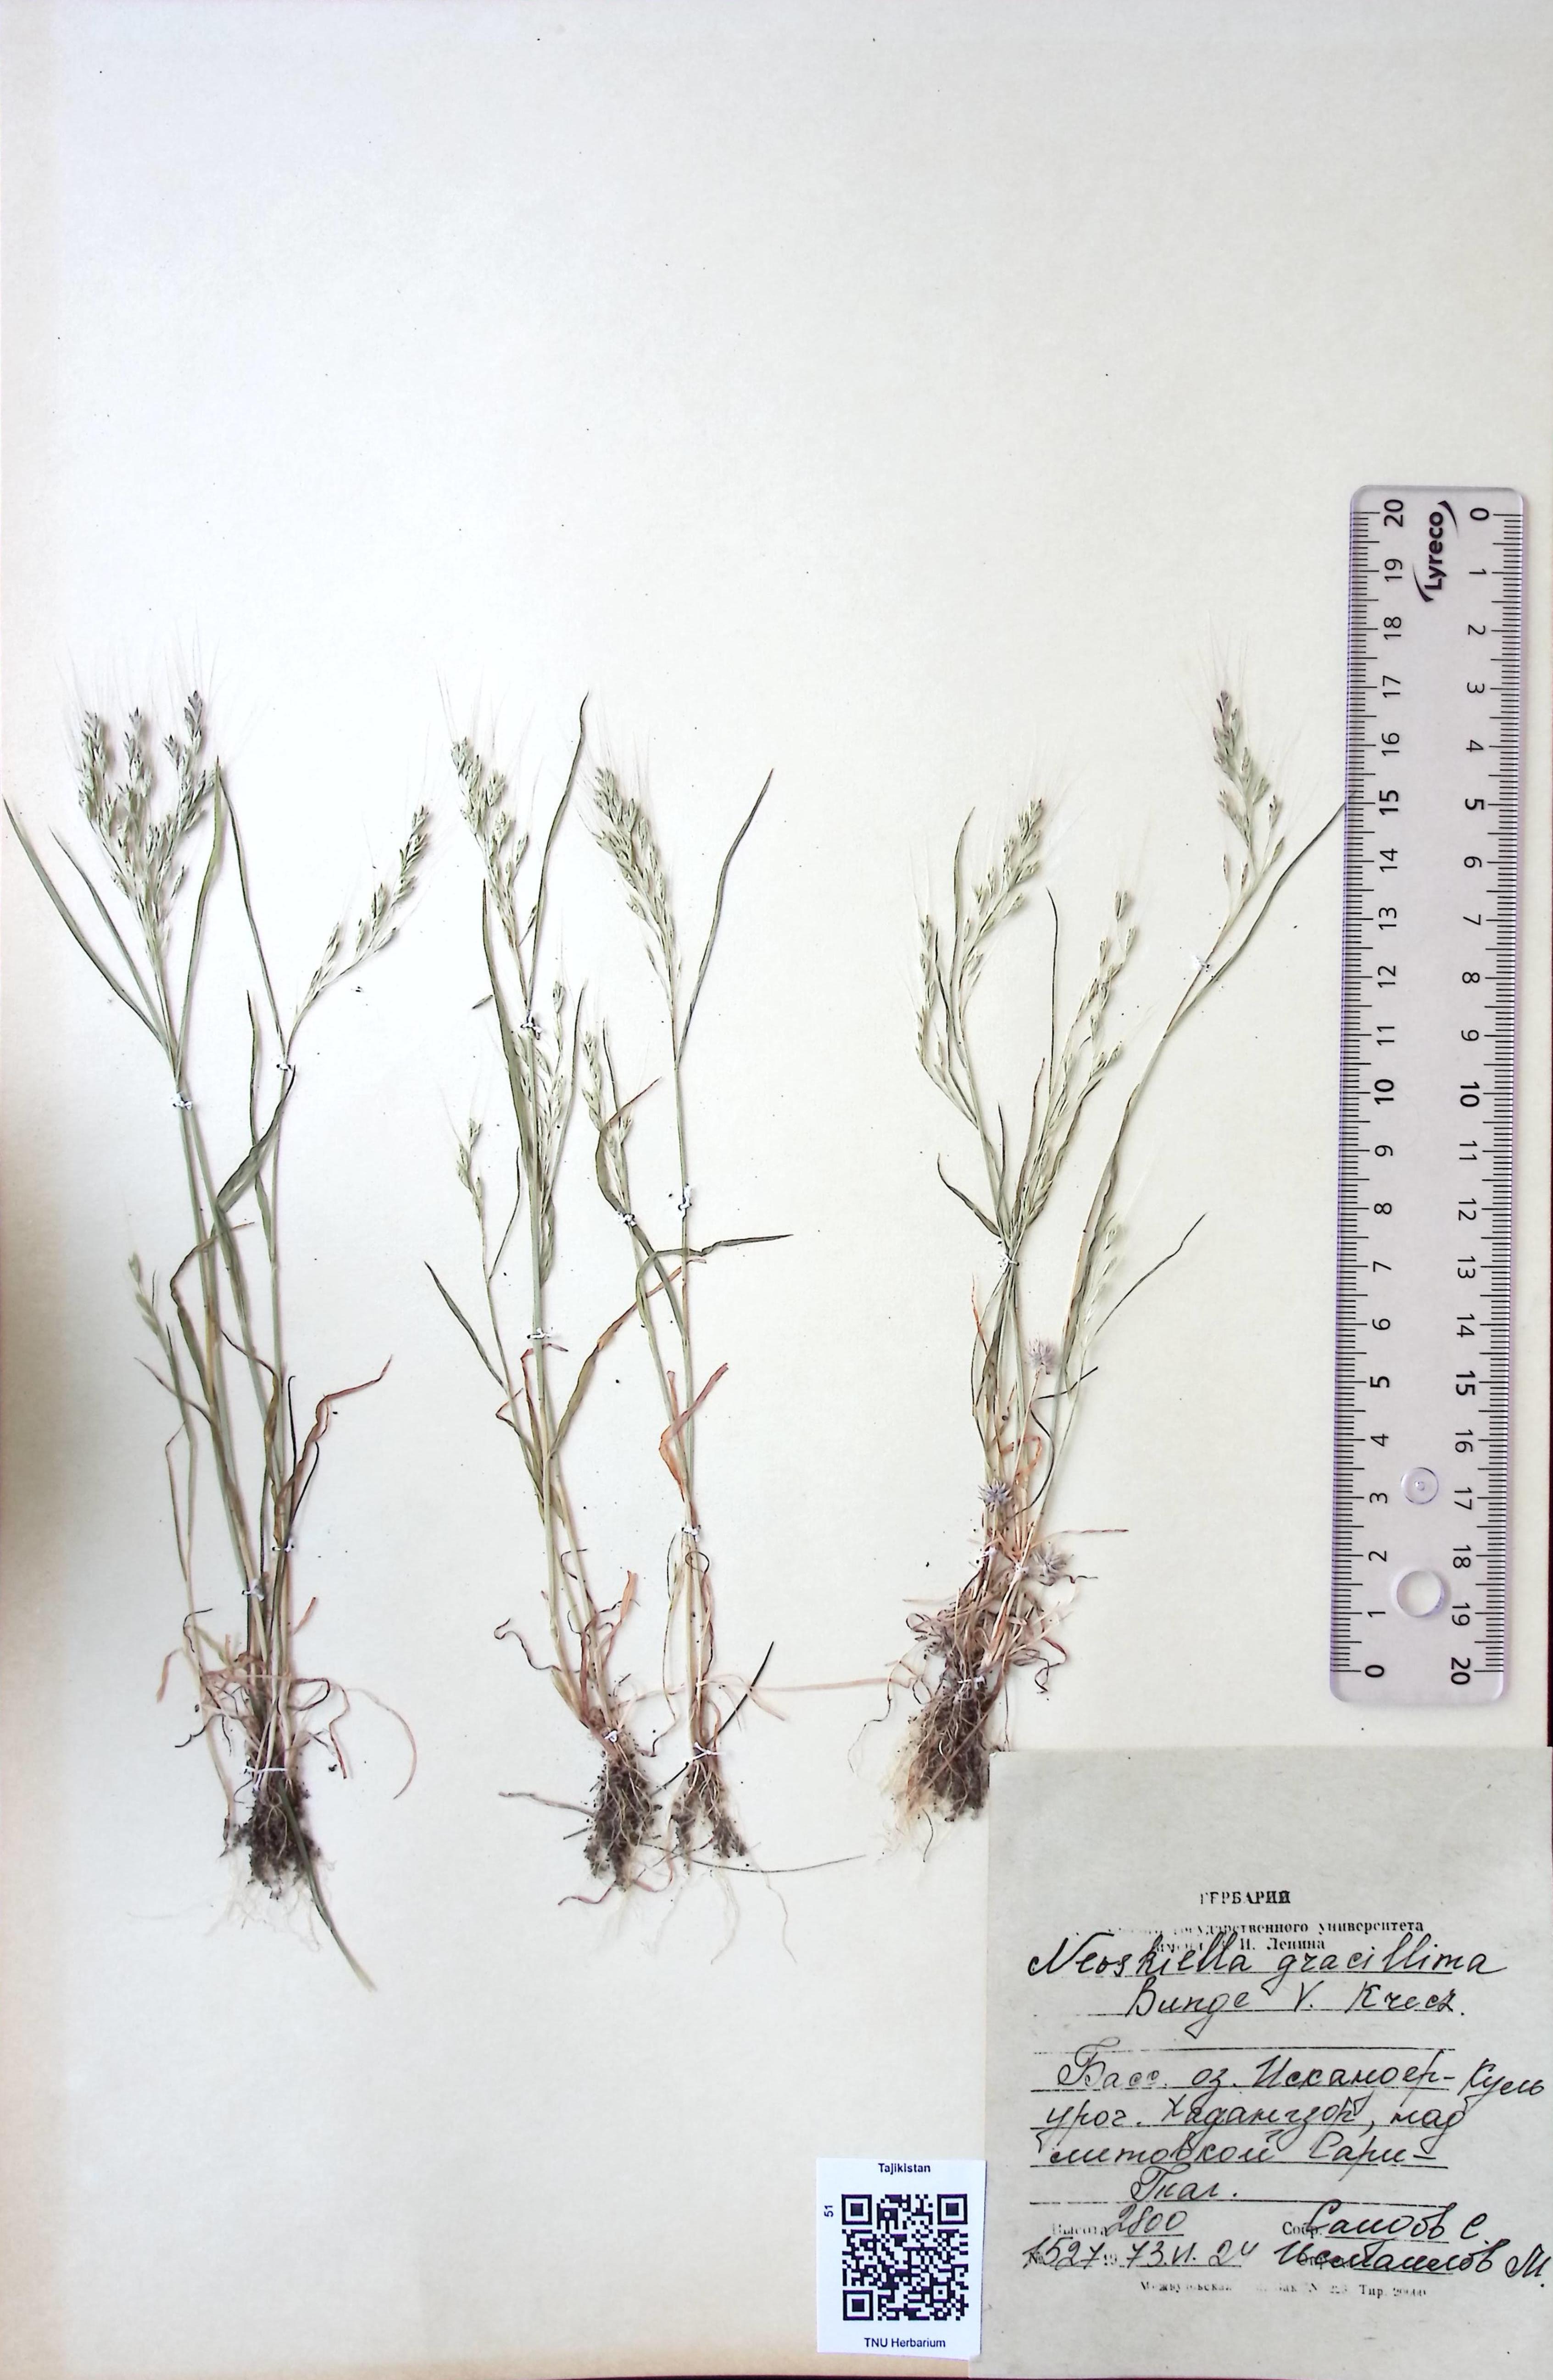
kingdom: Plantae
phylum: Tracheophyta
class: Liliopsida
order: Poales
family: Poaceae
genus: Bromus
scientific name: Bromus gracillimus
